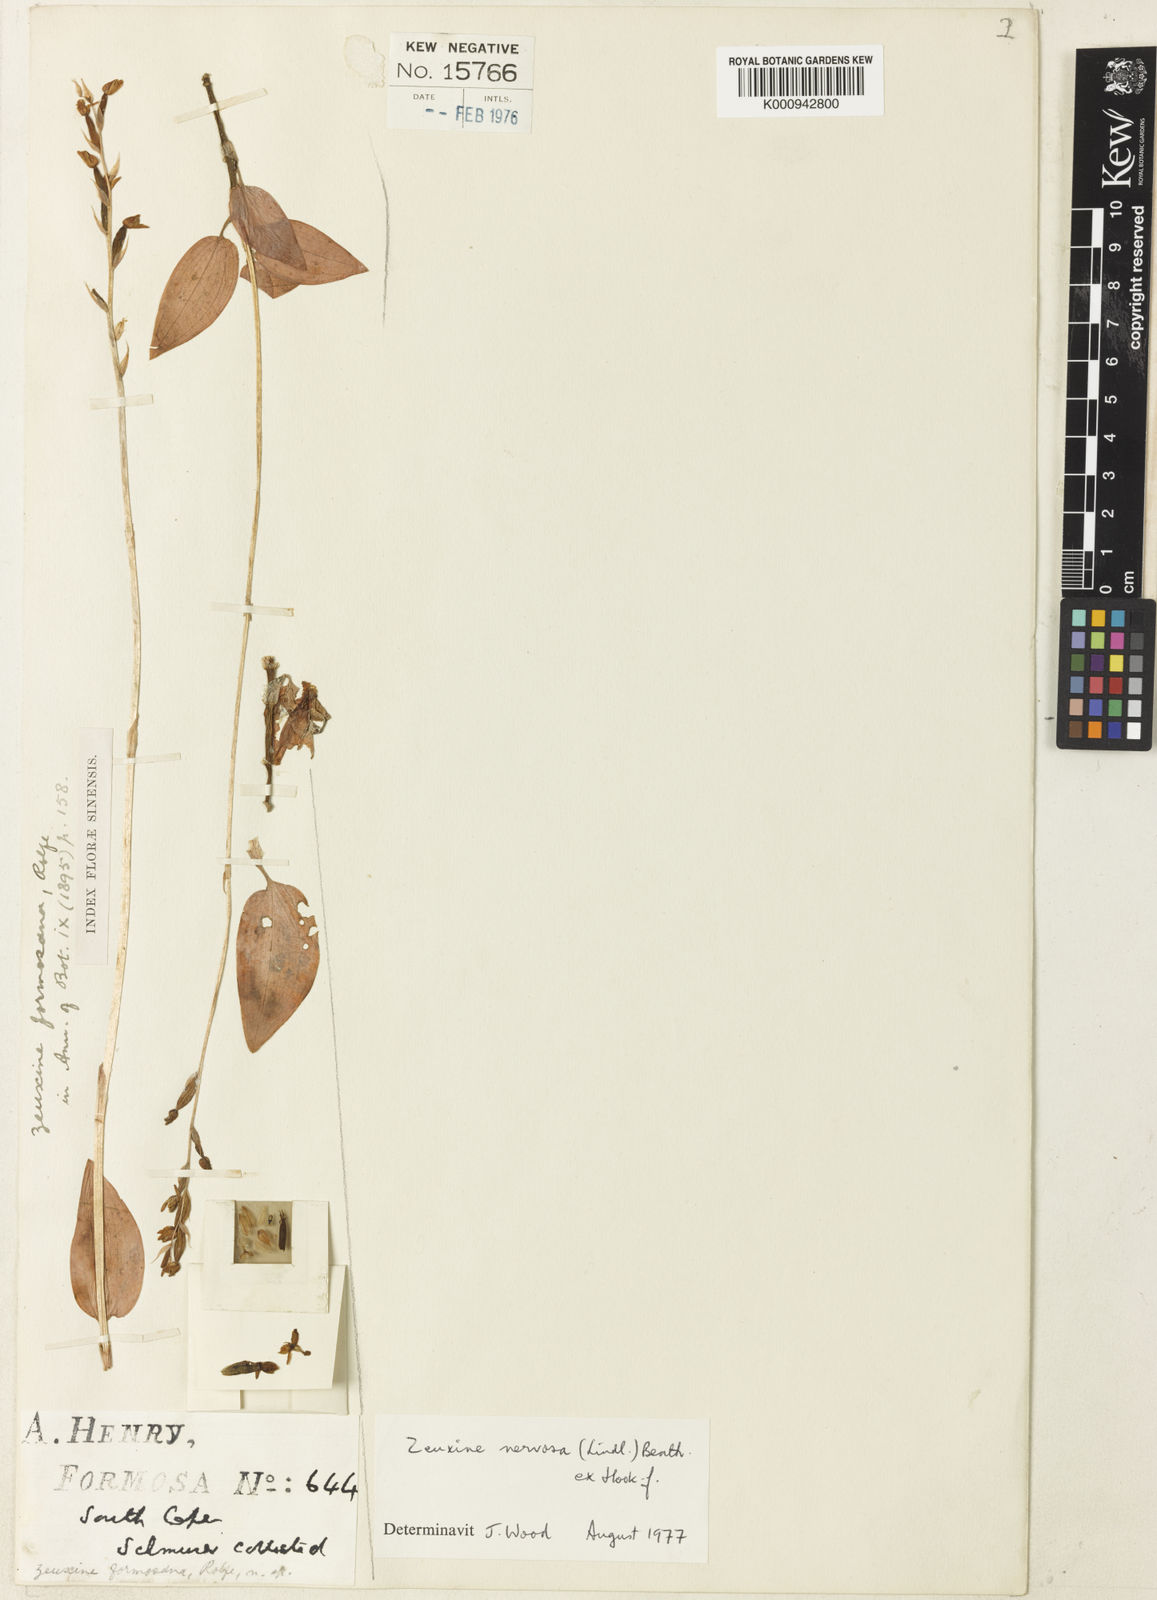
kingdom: Plantae
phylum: Tracheophyta
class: Liliopsida
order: Asparagales
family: Orchidaceae
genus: Zeuxine
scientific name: Zeuxine nervosa
